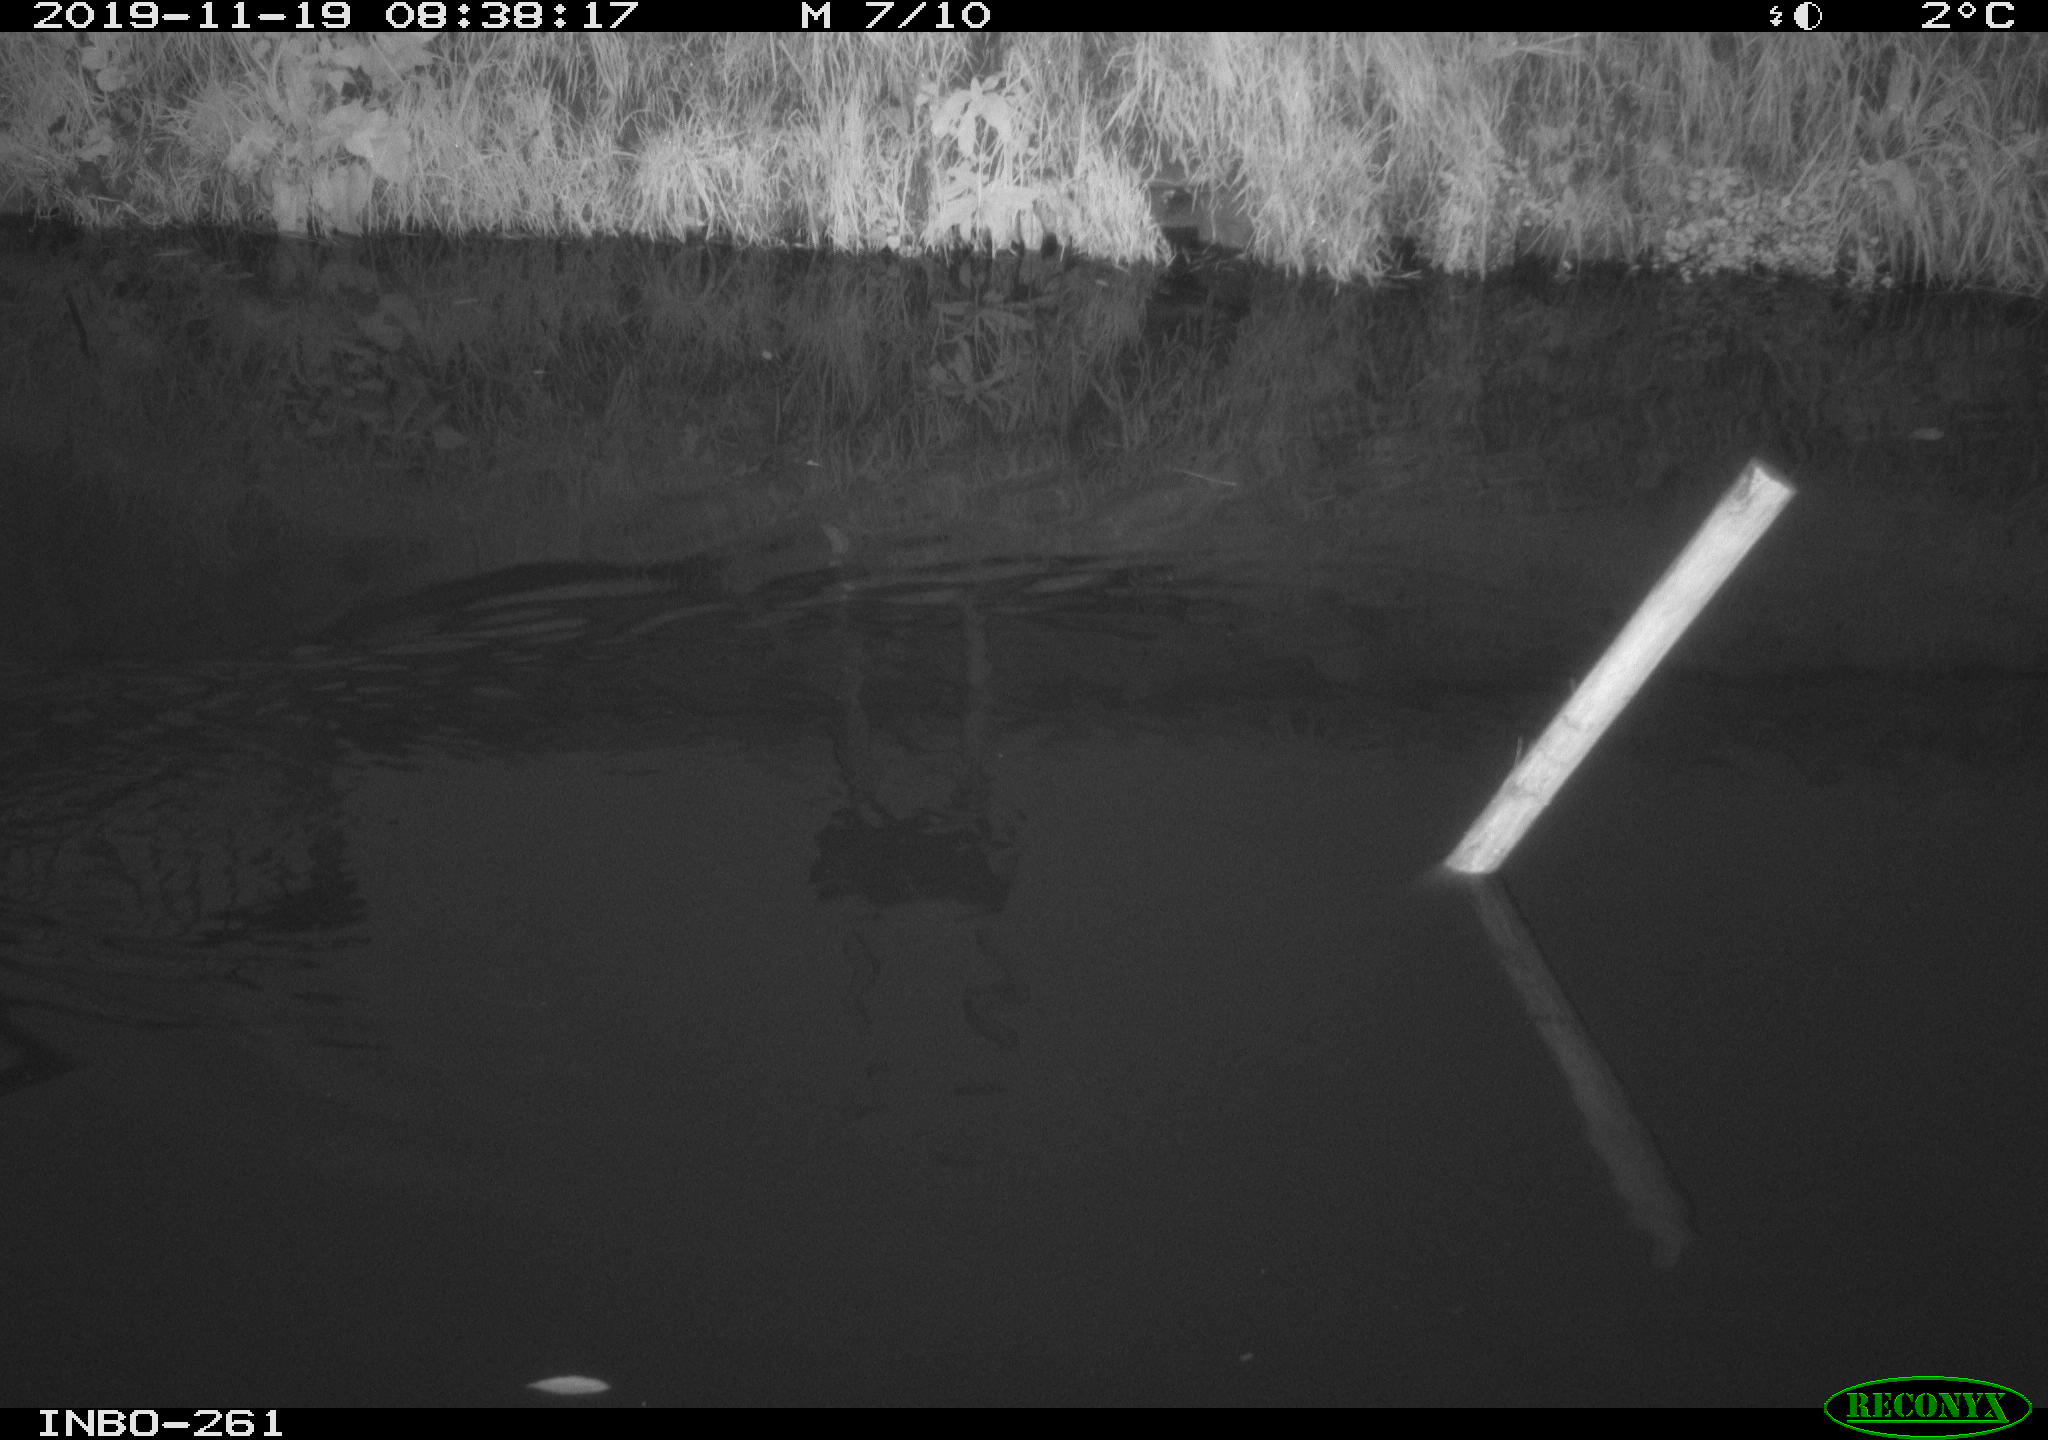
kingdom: Animalia
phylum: Chordata
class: Aves
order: Gruiformes
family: Rallidae
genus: Gallinula
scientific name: Gallinula chloropus
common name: Common moorhen
